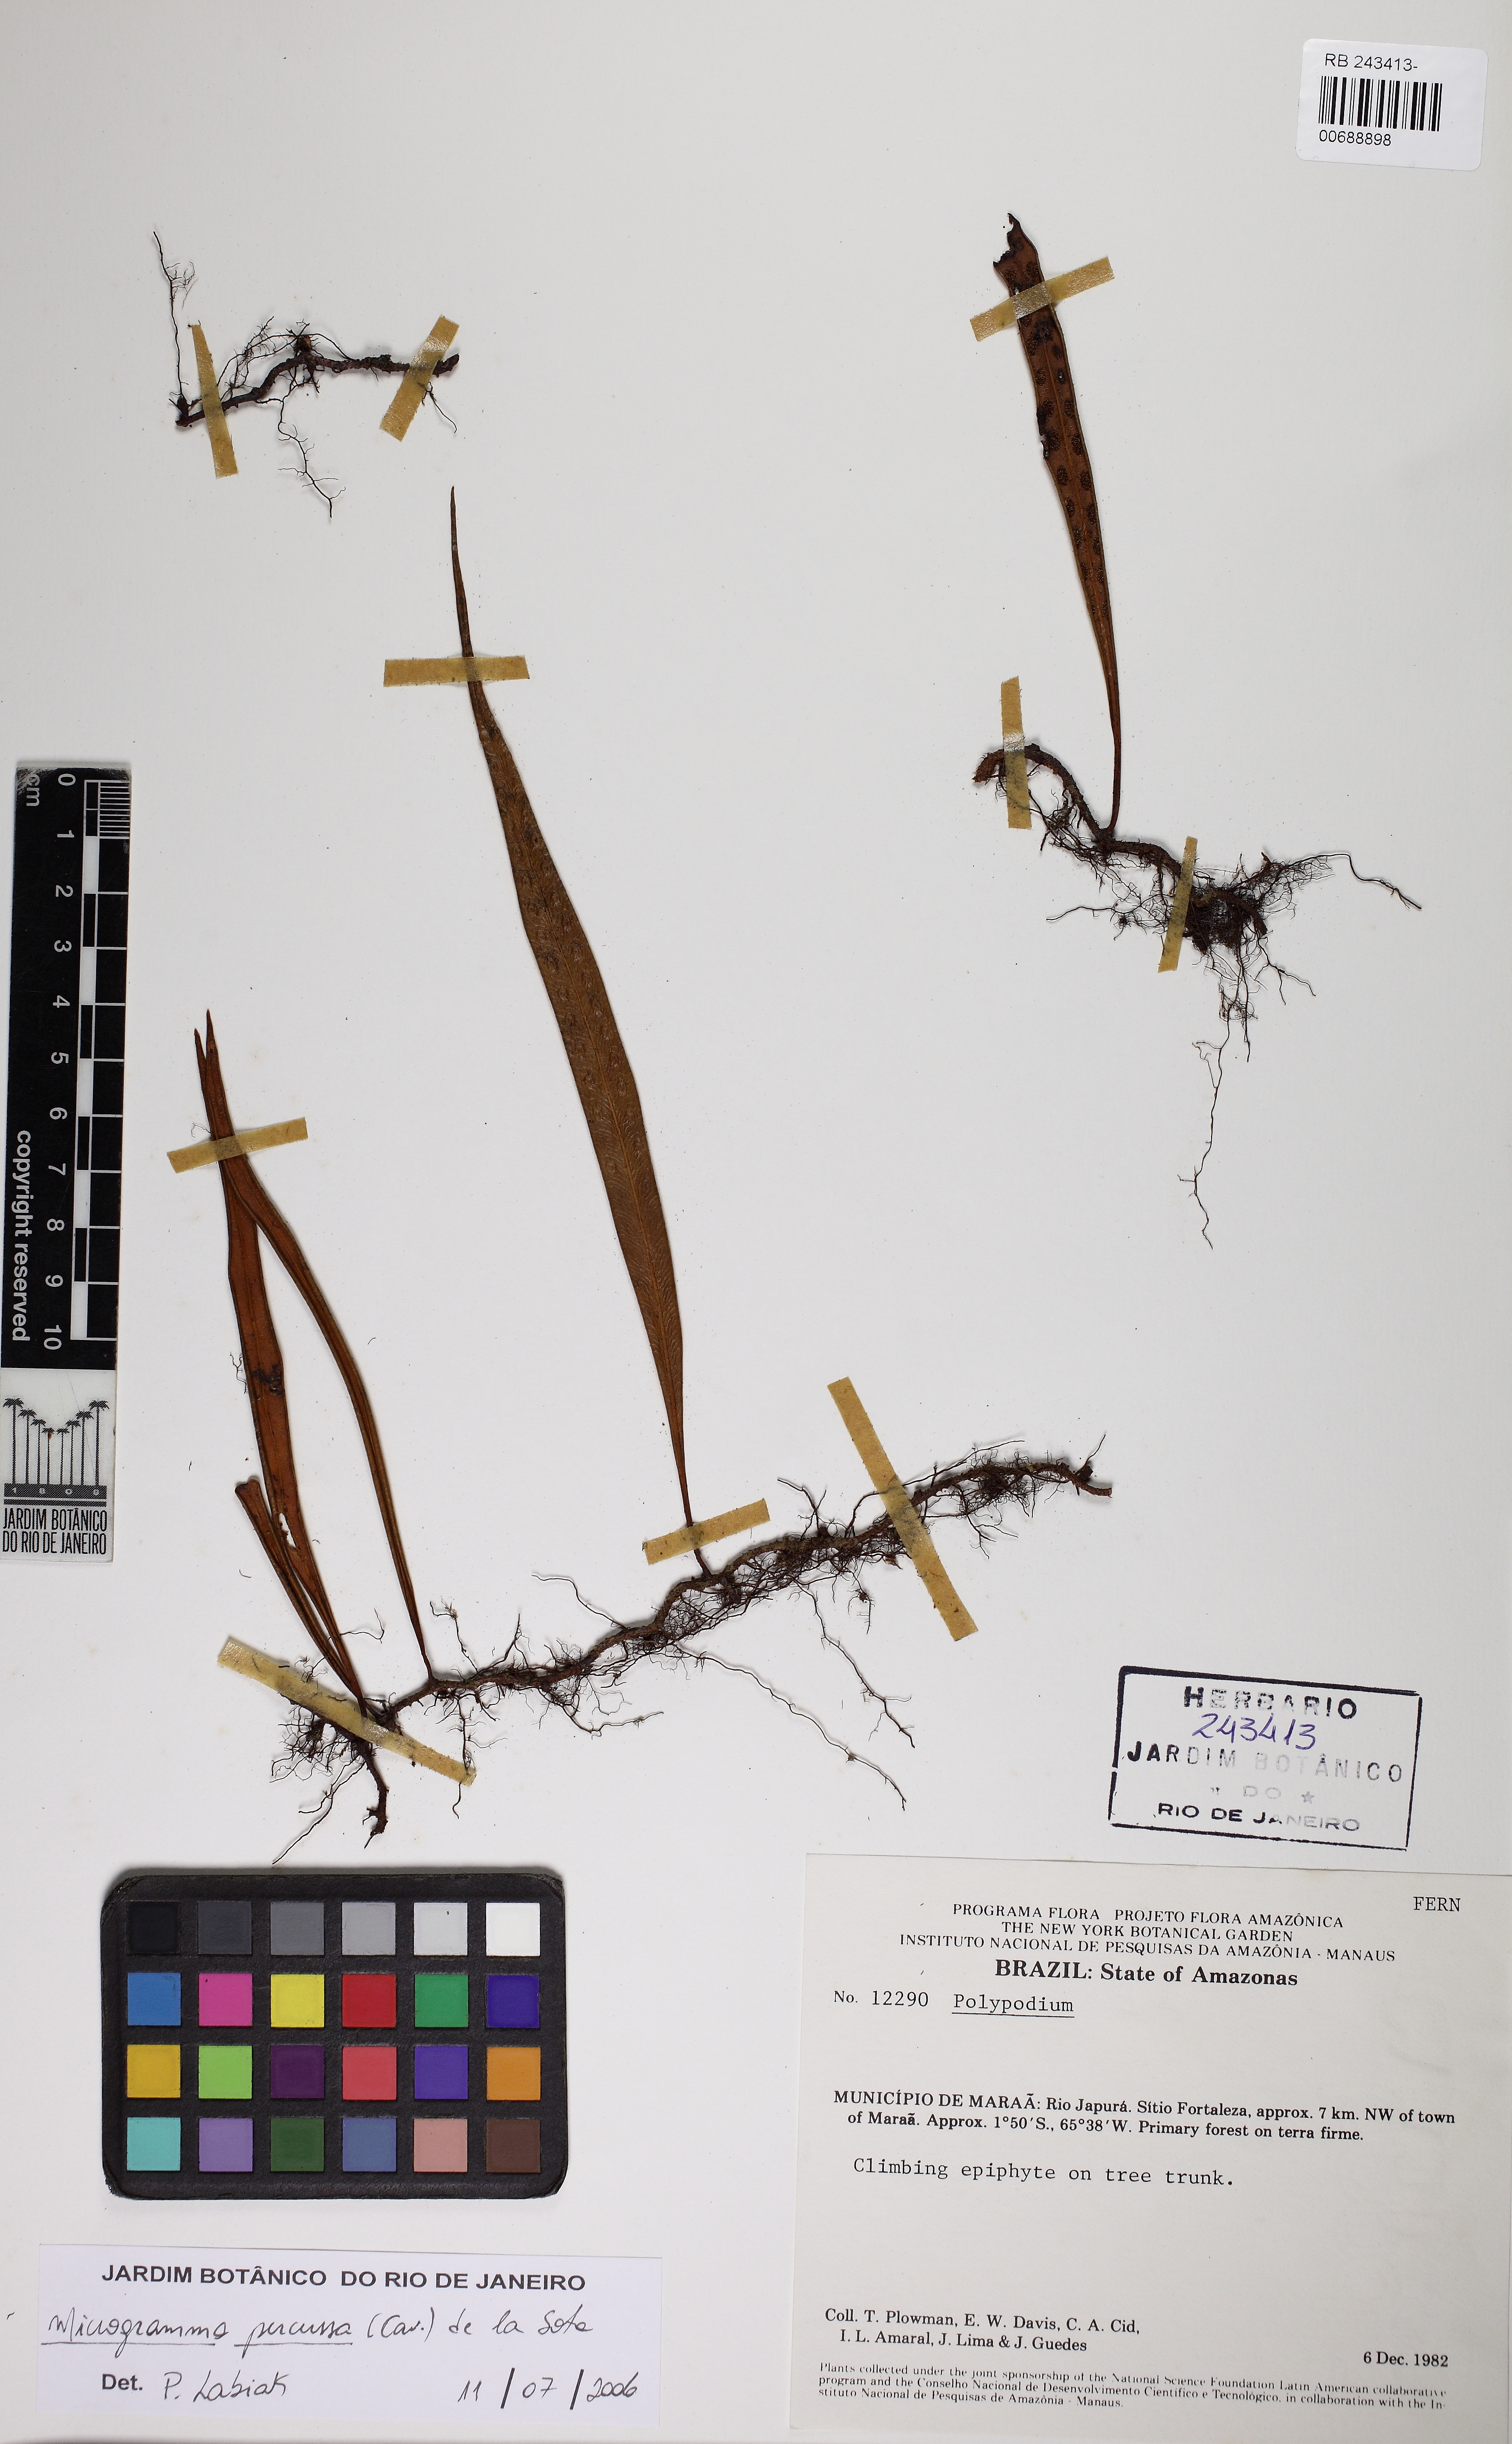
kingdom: Plantae
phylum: Tracheophyta
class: Polypodiopsida
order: Polypodiales
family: Polypodiaceae
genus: Microgramma
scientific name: Microgramma percussa
